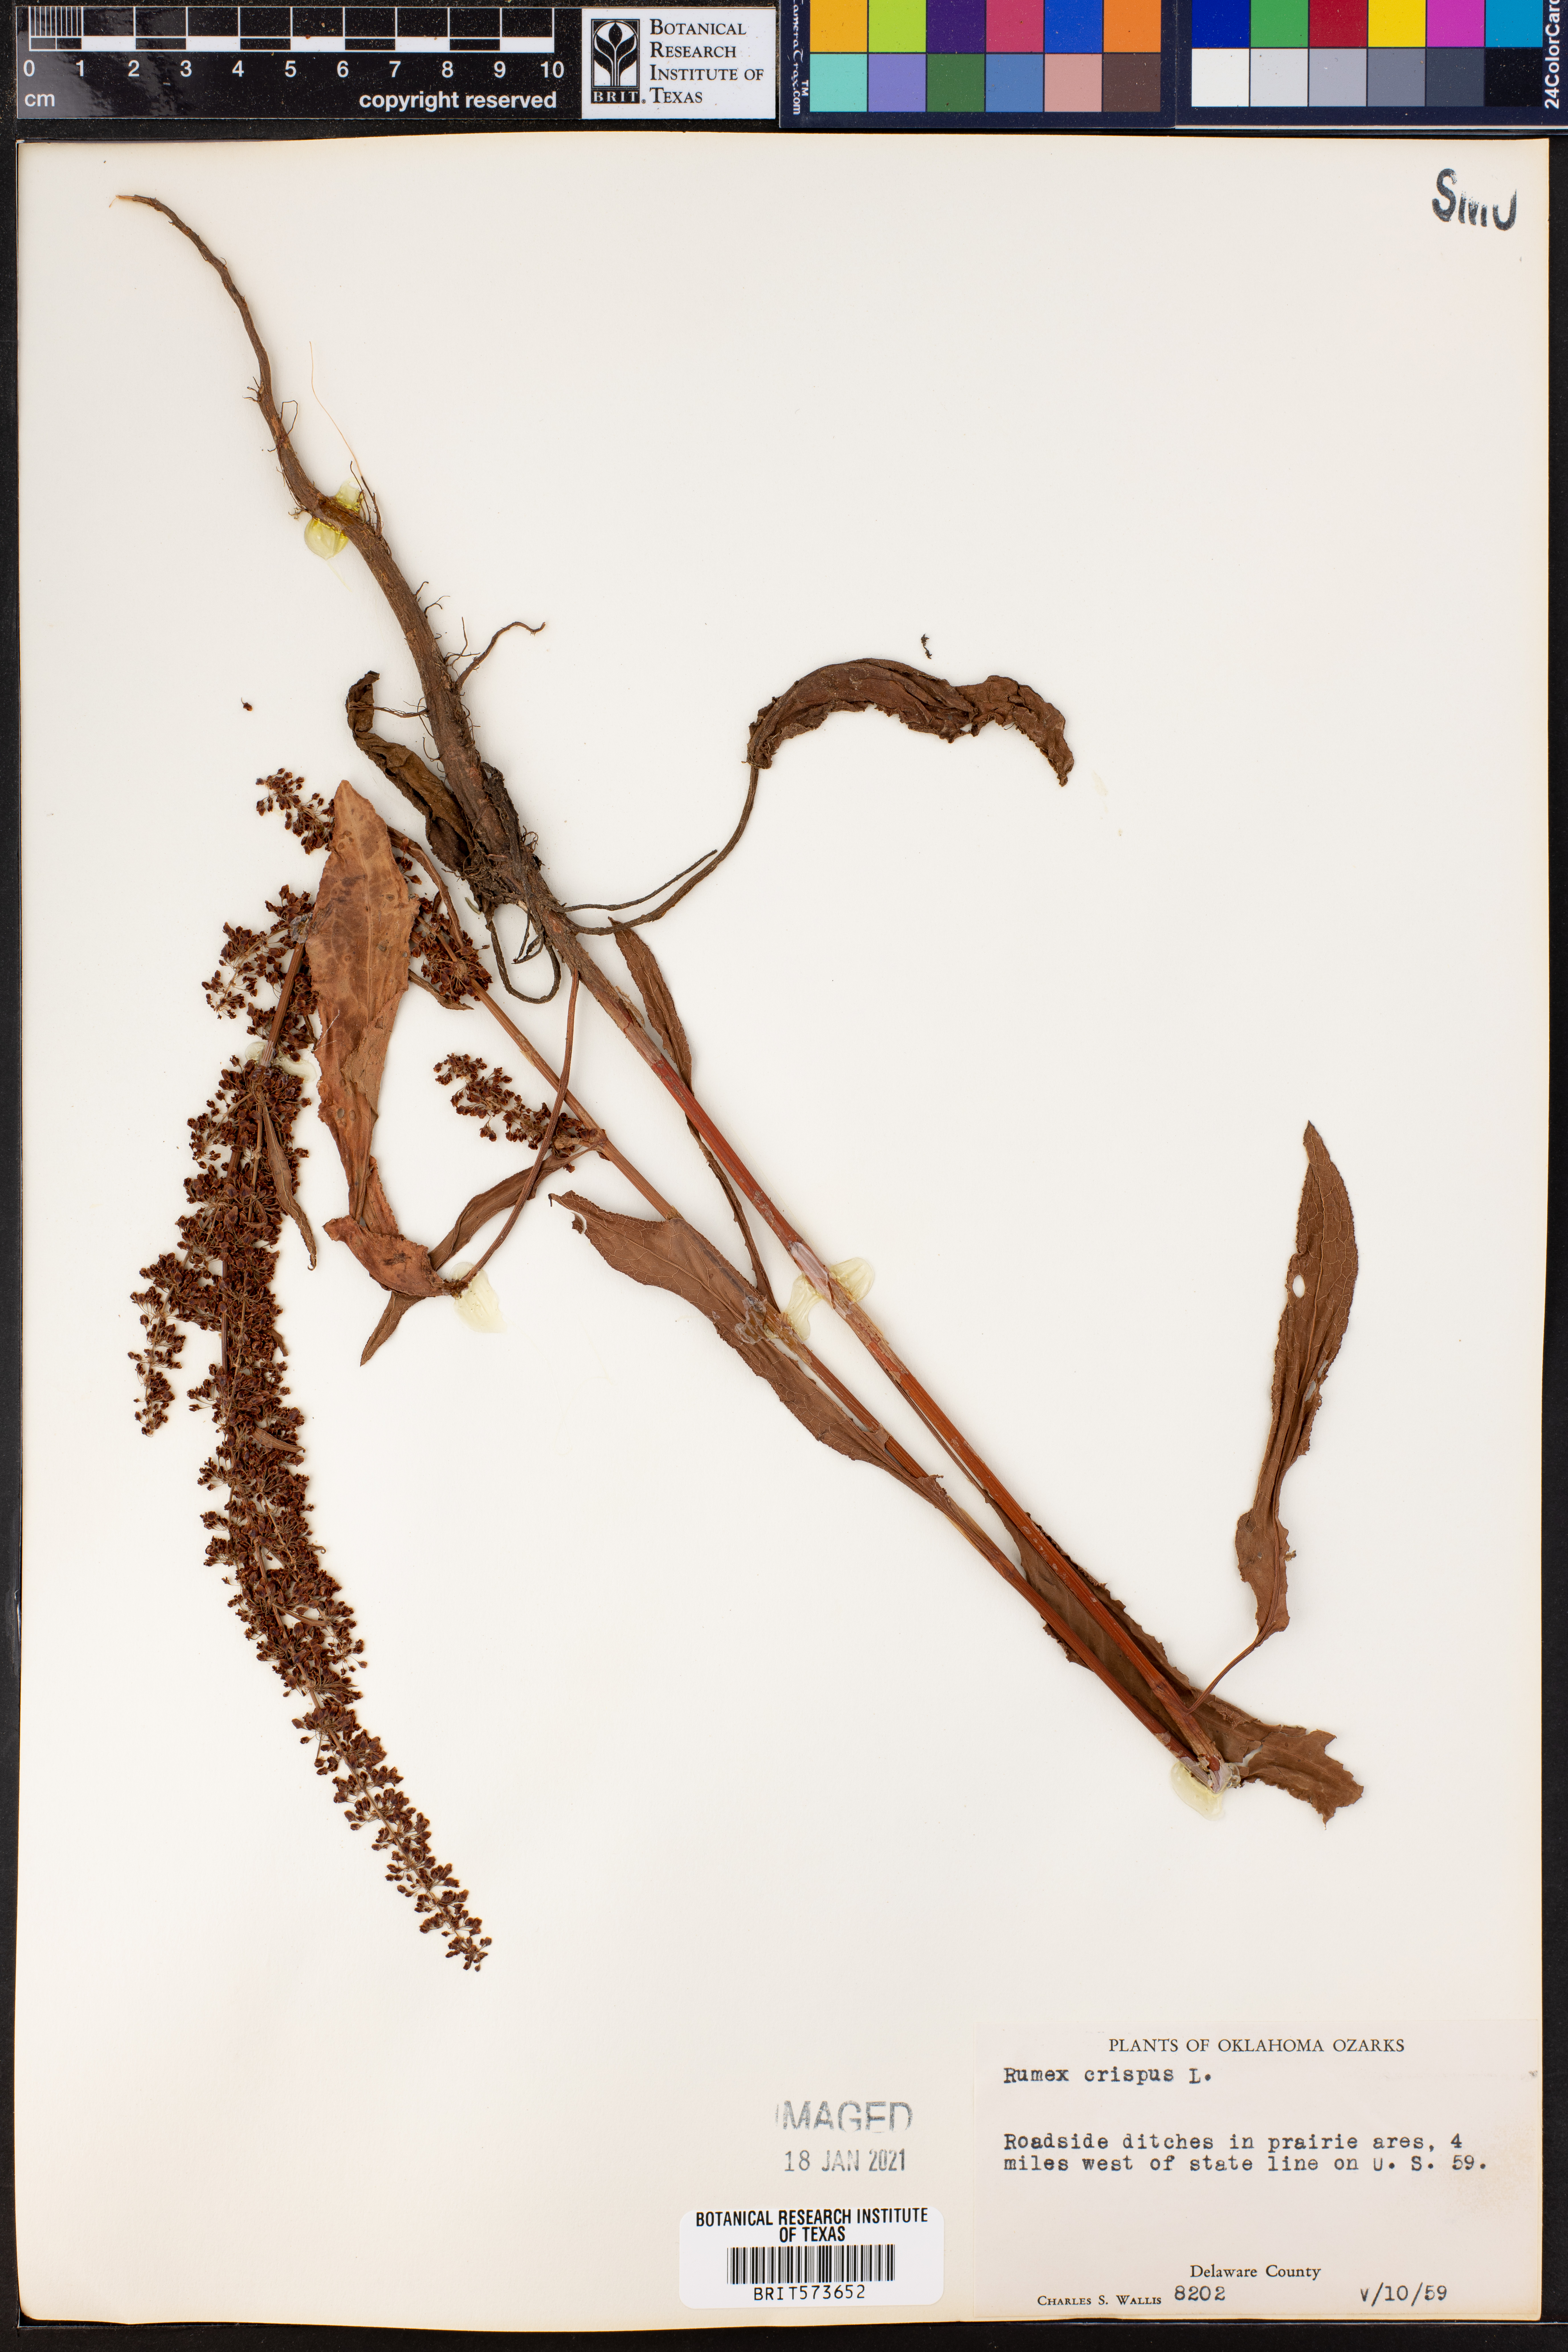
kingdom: Plantae
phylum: Tracheophyta
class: Magnoliopsida
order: Caryophyllales
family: Polygonaceae
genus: Rumex
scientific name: Rumex crispus
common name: Curled dock
